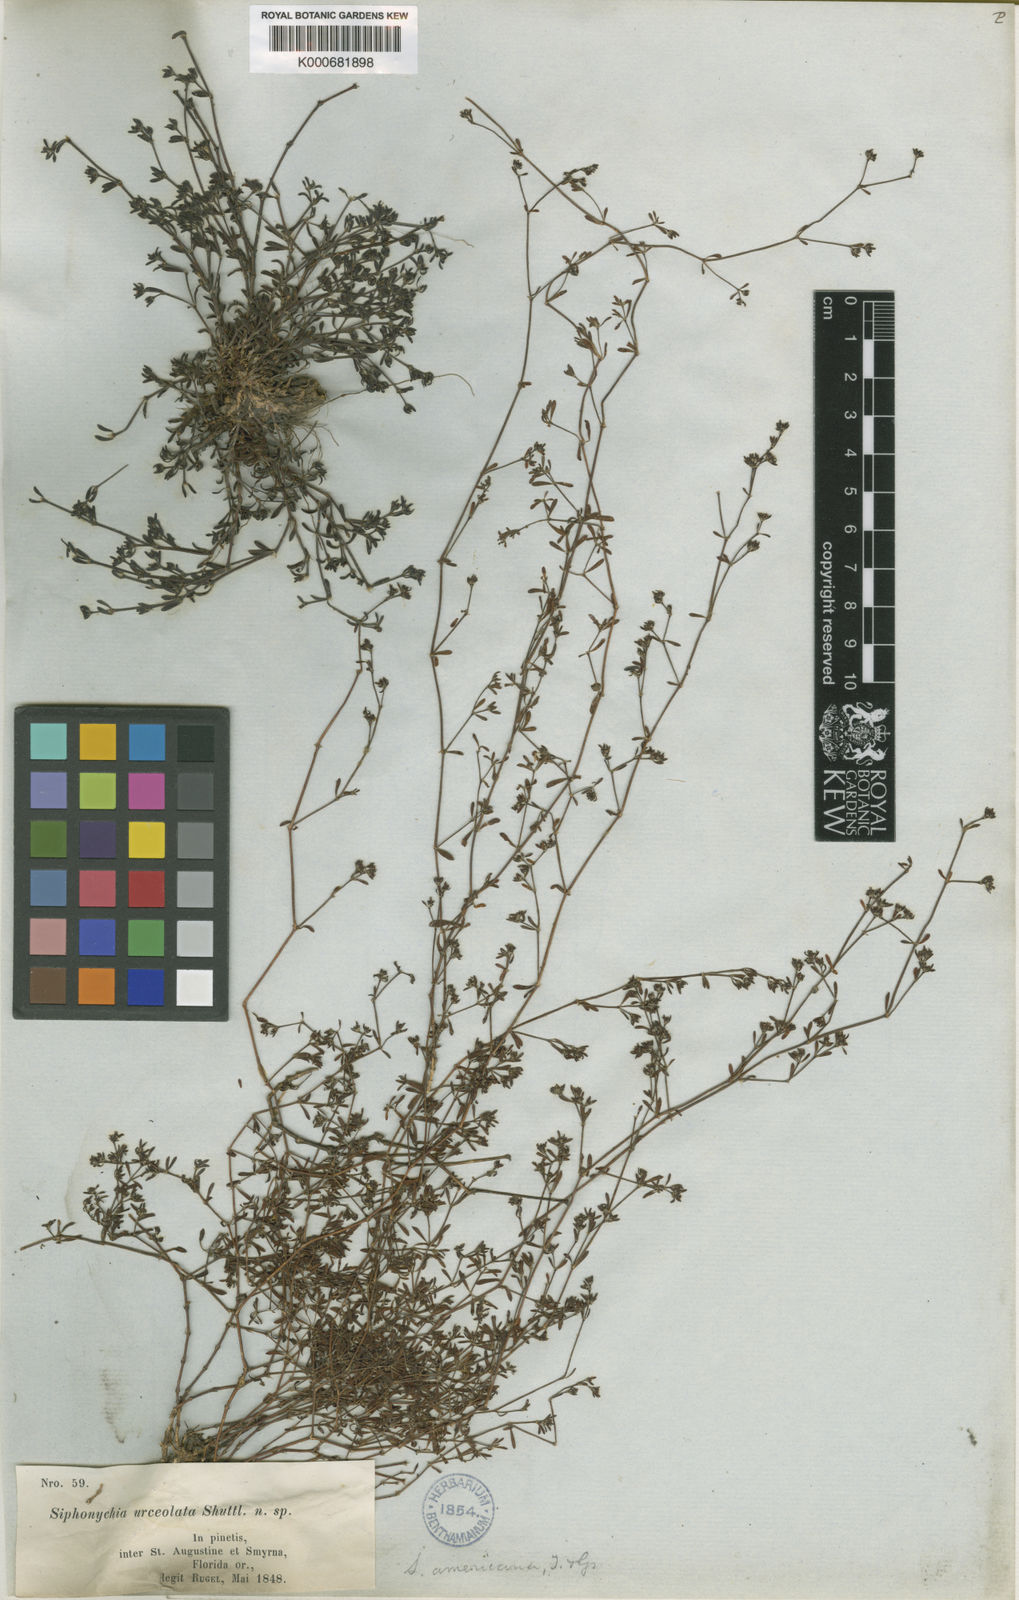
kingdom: Plantae
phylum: Tracheophyta
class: Magnoliopsida
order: Caryophyllales
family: Caryophyllaceae
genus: Paronychia
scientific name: Paronychia americana
